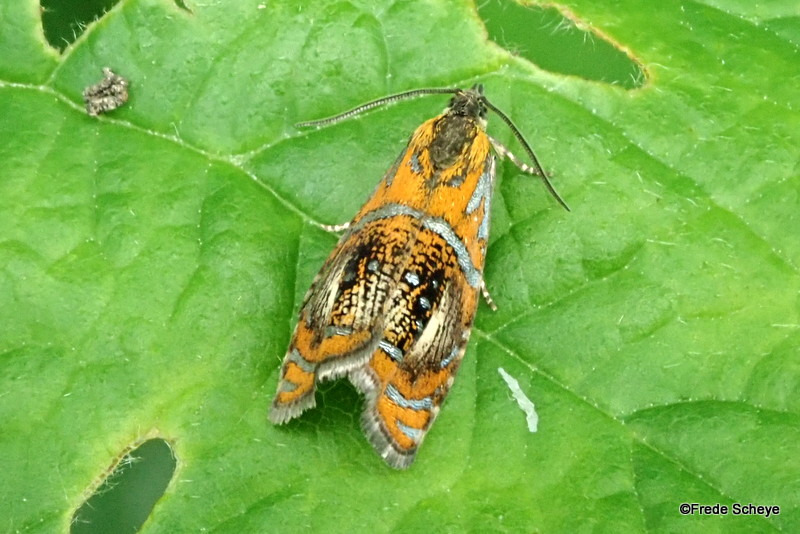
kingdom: Animalia
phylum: Arthropoda
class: Insecta
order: Lepidoptera
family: Tortricidae
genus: Olethreutes
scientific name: Olethreutes arcuella
